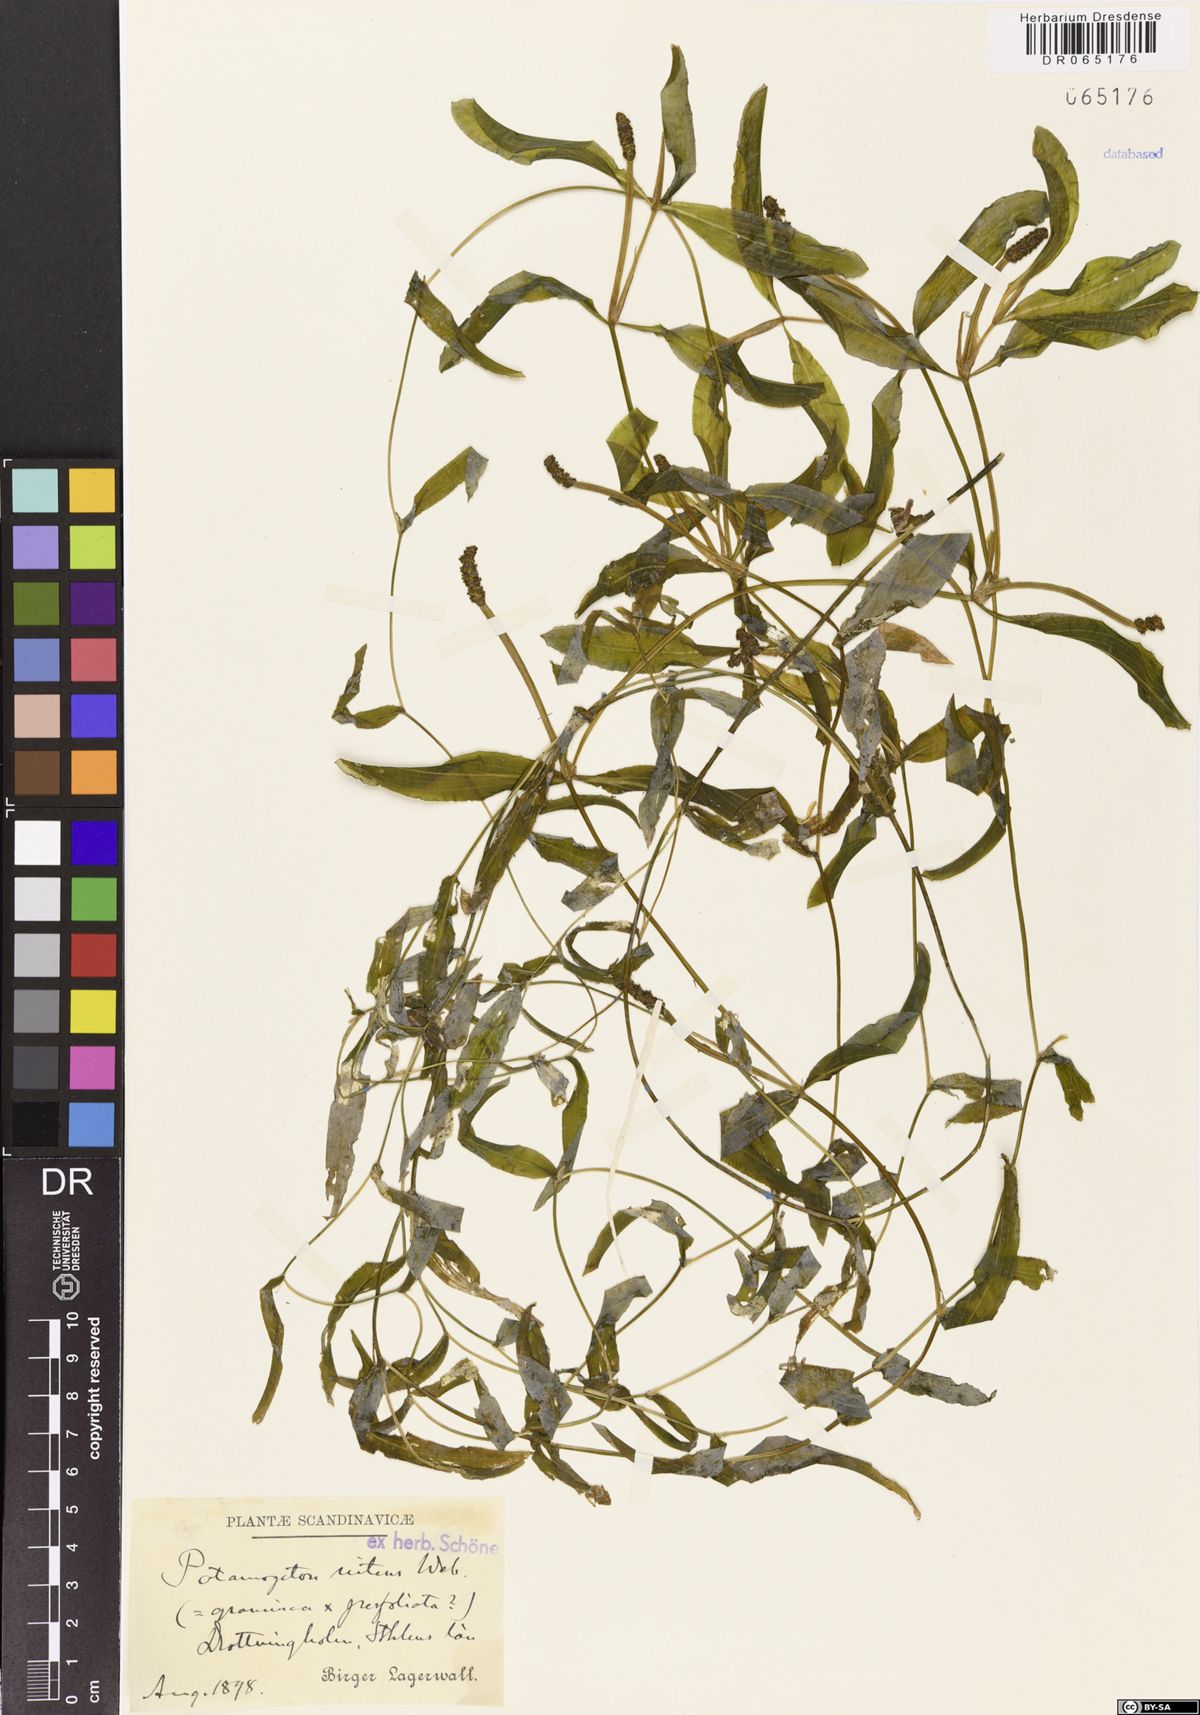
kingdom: Plantae
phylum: Tracheophyta
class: Liliopsida
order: Alismatales
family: Potamogetonaceae
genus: Potamogeton
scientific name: Potamogeton nitens
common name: Pondweed
